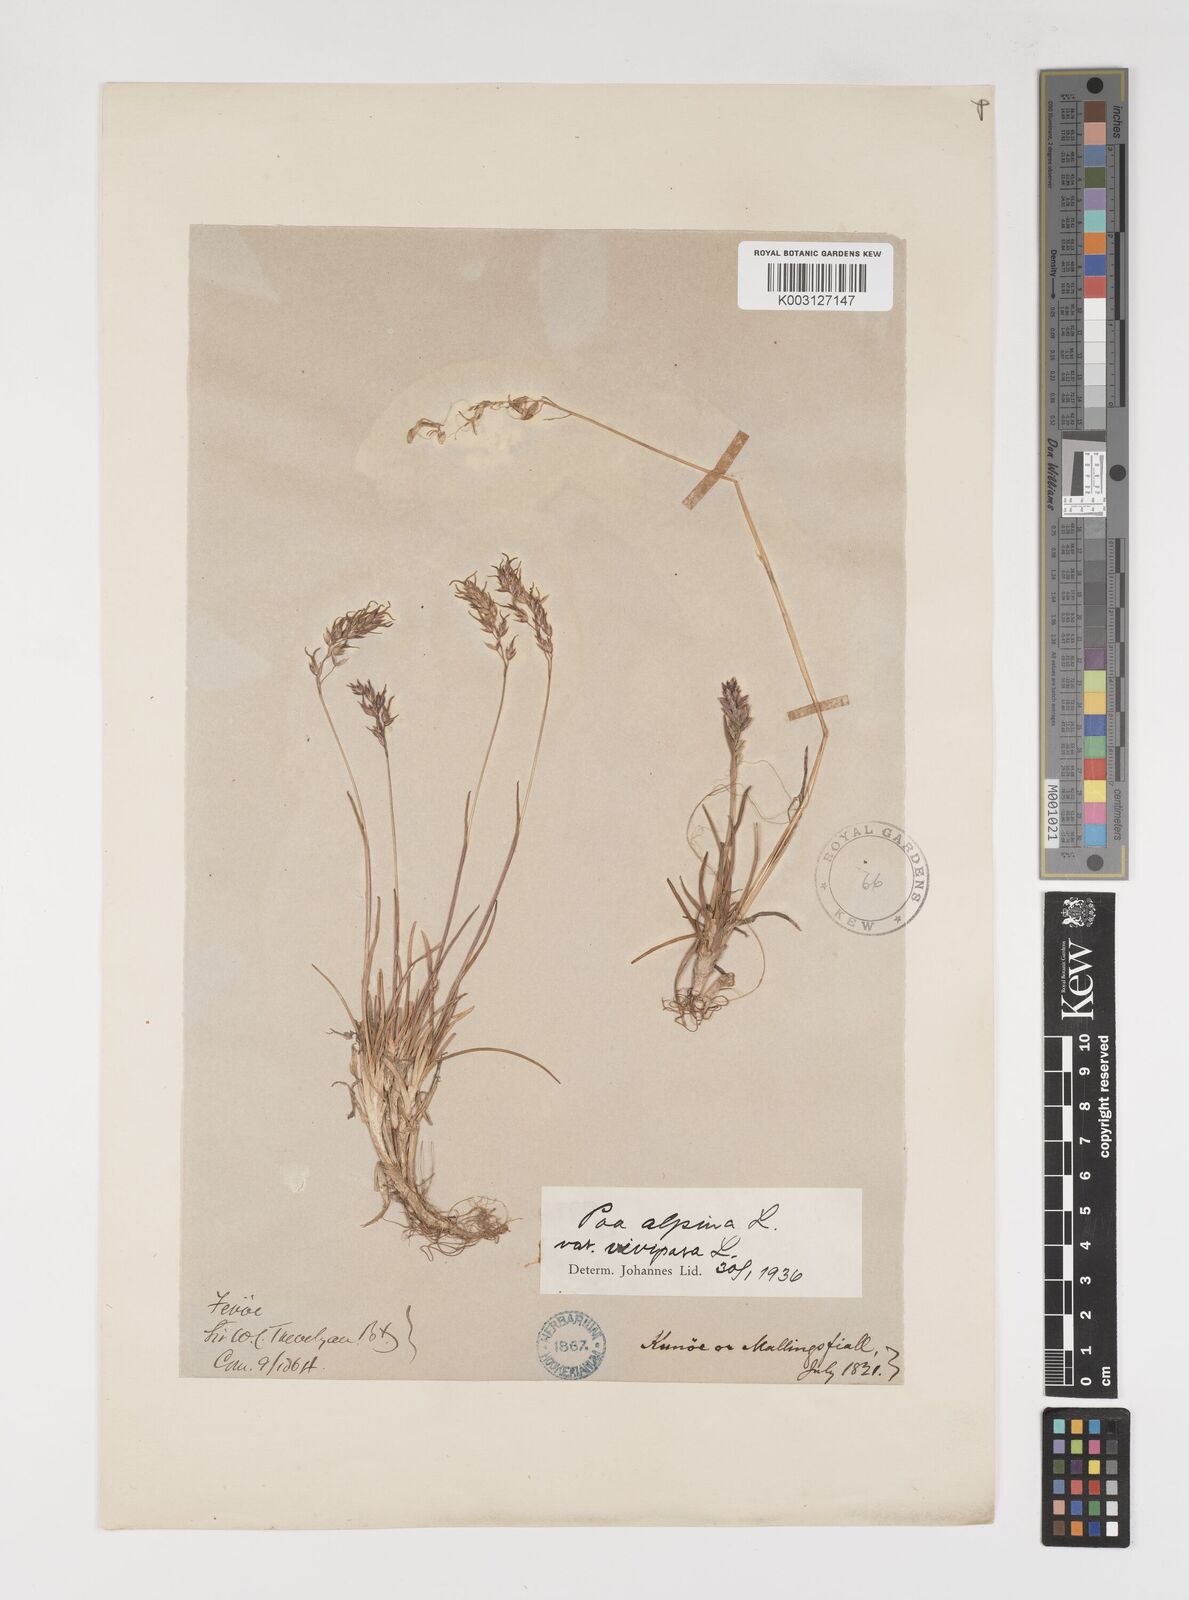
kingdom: Plantae
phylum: Tracheophyta
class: Liliopsida
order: Poales
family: Poaceae
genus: Poa
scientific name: Poa alpina
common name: Alpine bluegrass
